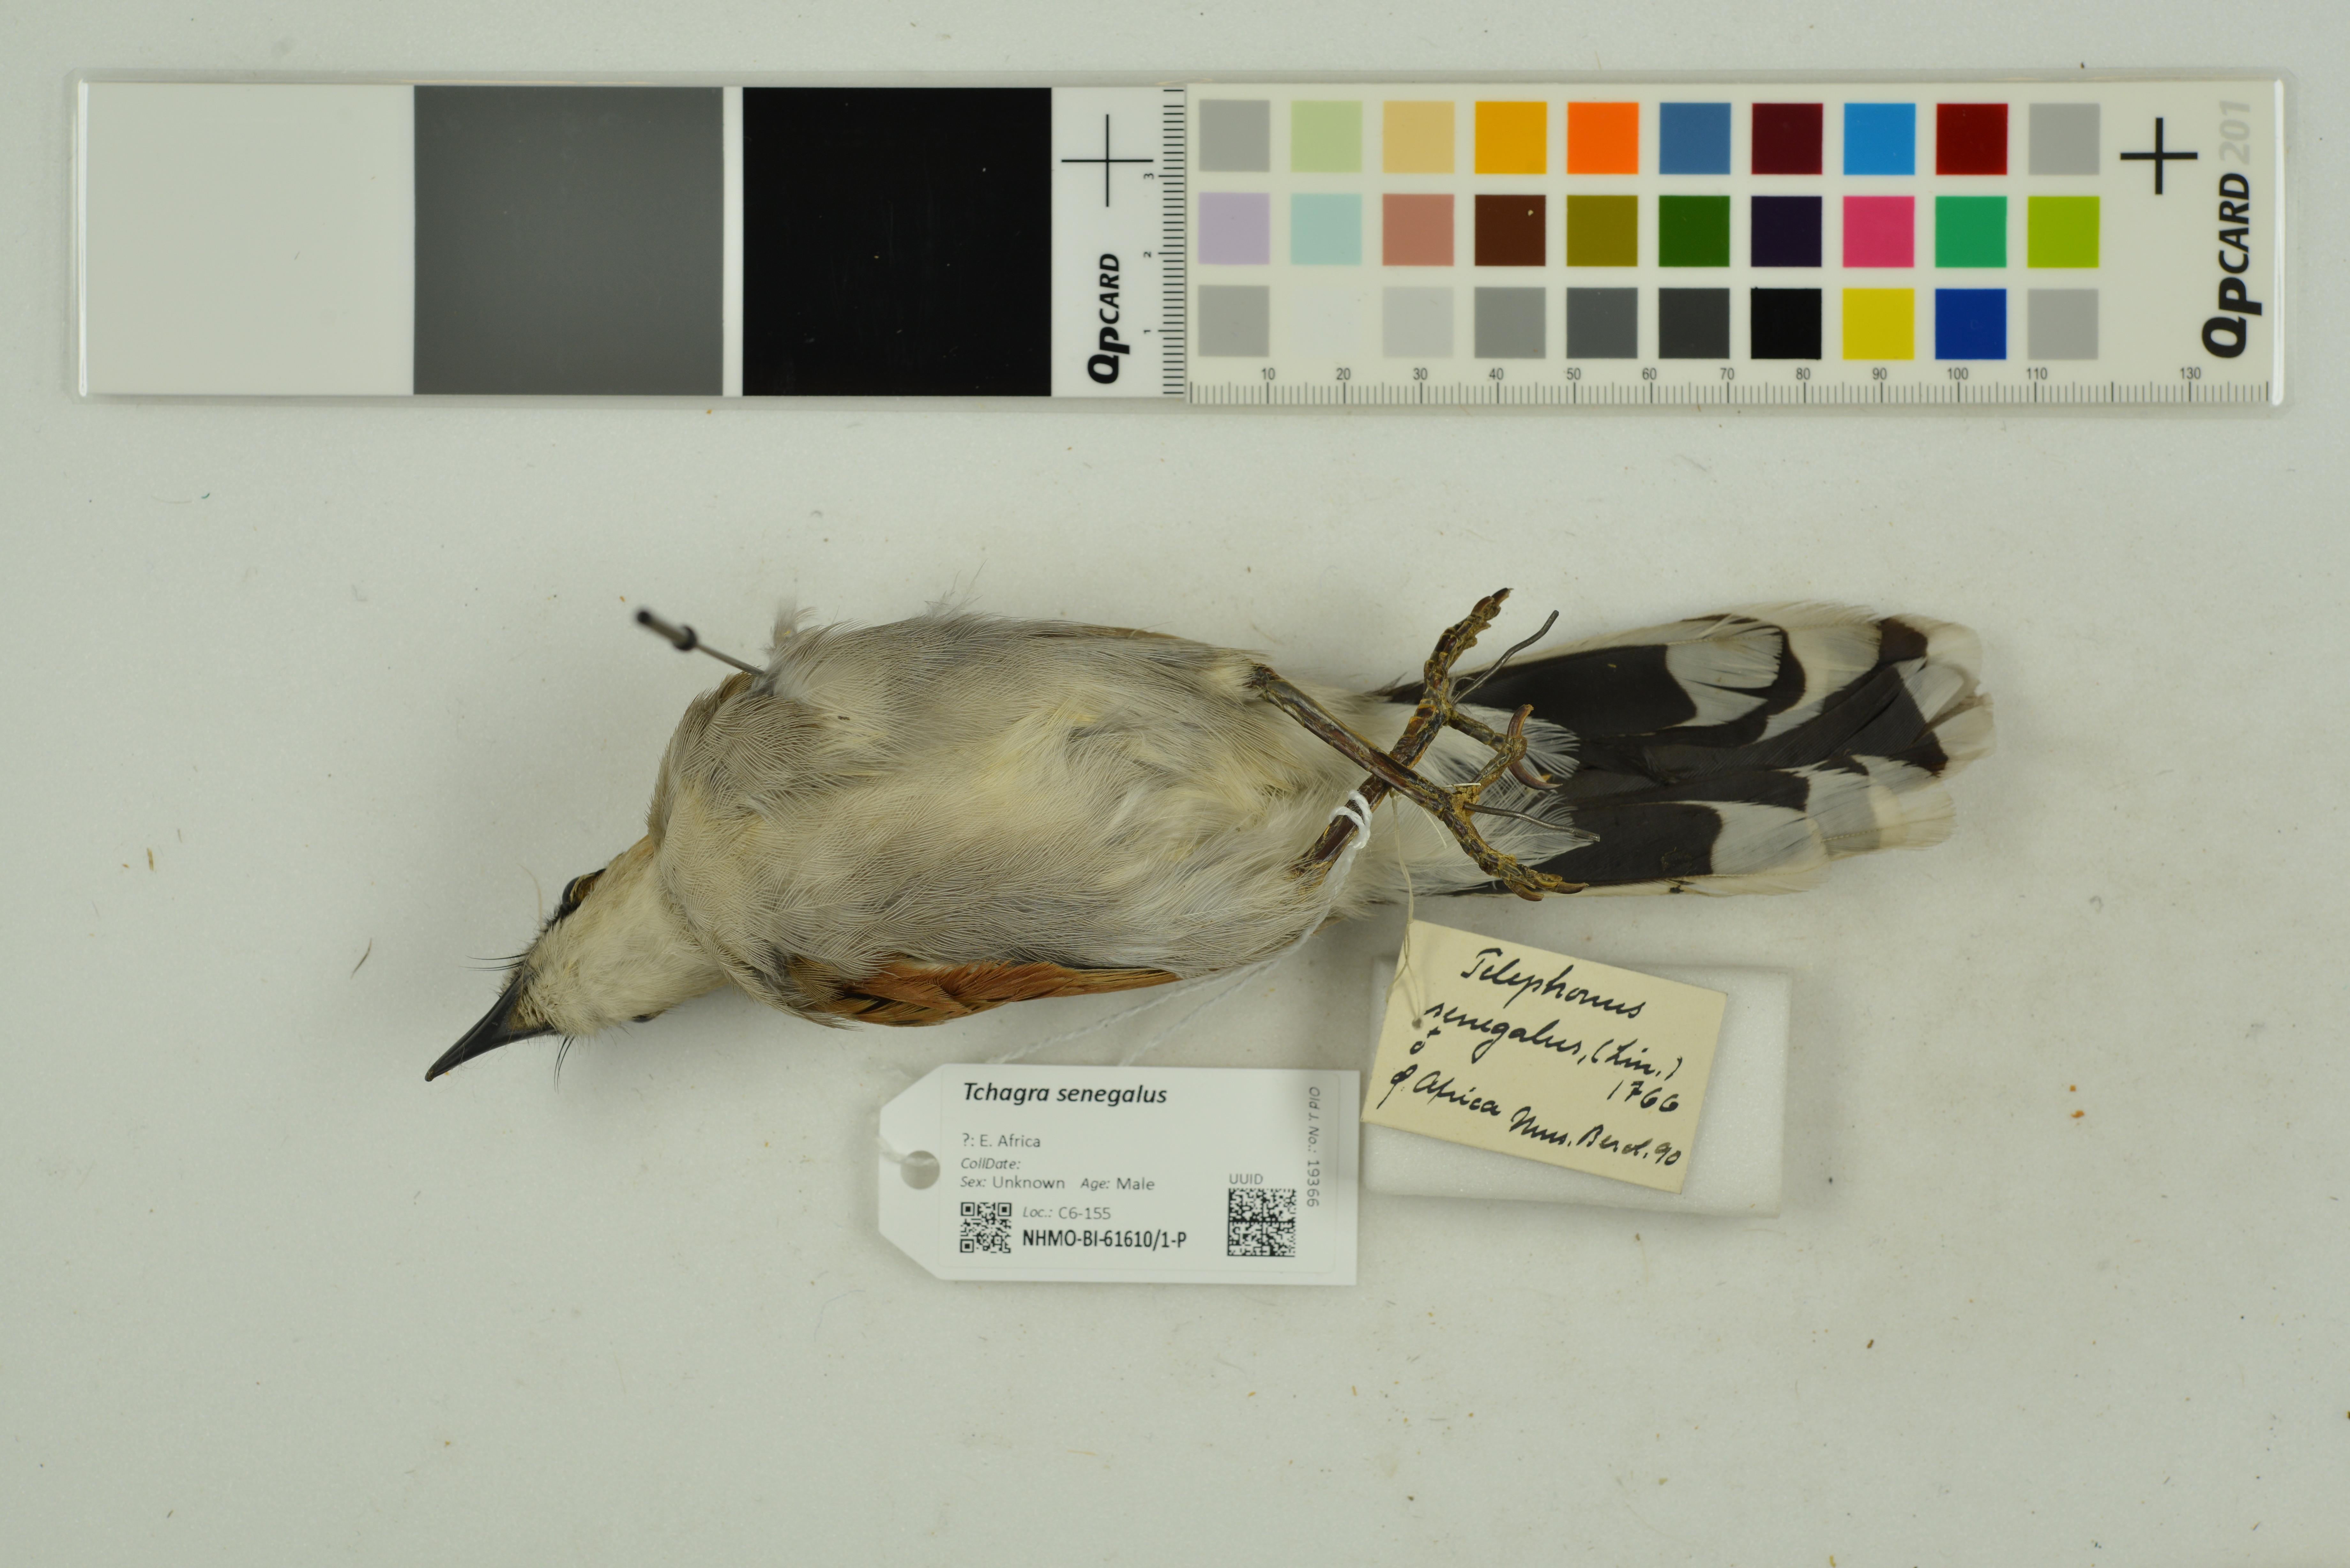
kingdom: Animalia
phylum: Chordata
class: Aves
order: Passeriformes
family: Malaconotidae
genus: Tchagra
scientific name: Tchagra senegalus
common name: Black-crowned tchagra
